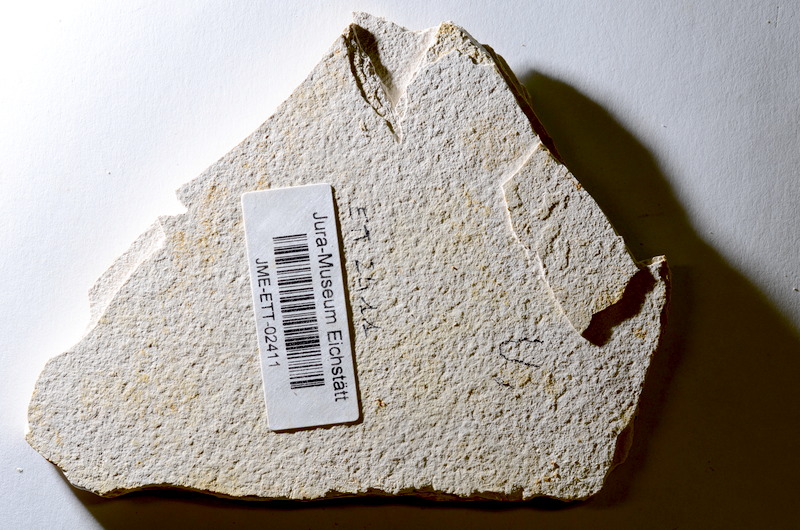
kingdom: Animalia
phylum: Chordata
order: Salmoniformes
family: Orthogonikleithridae
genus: Orthogonikleithrus
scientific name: Orthogonikleithrus hoelli
